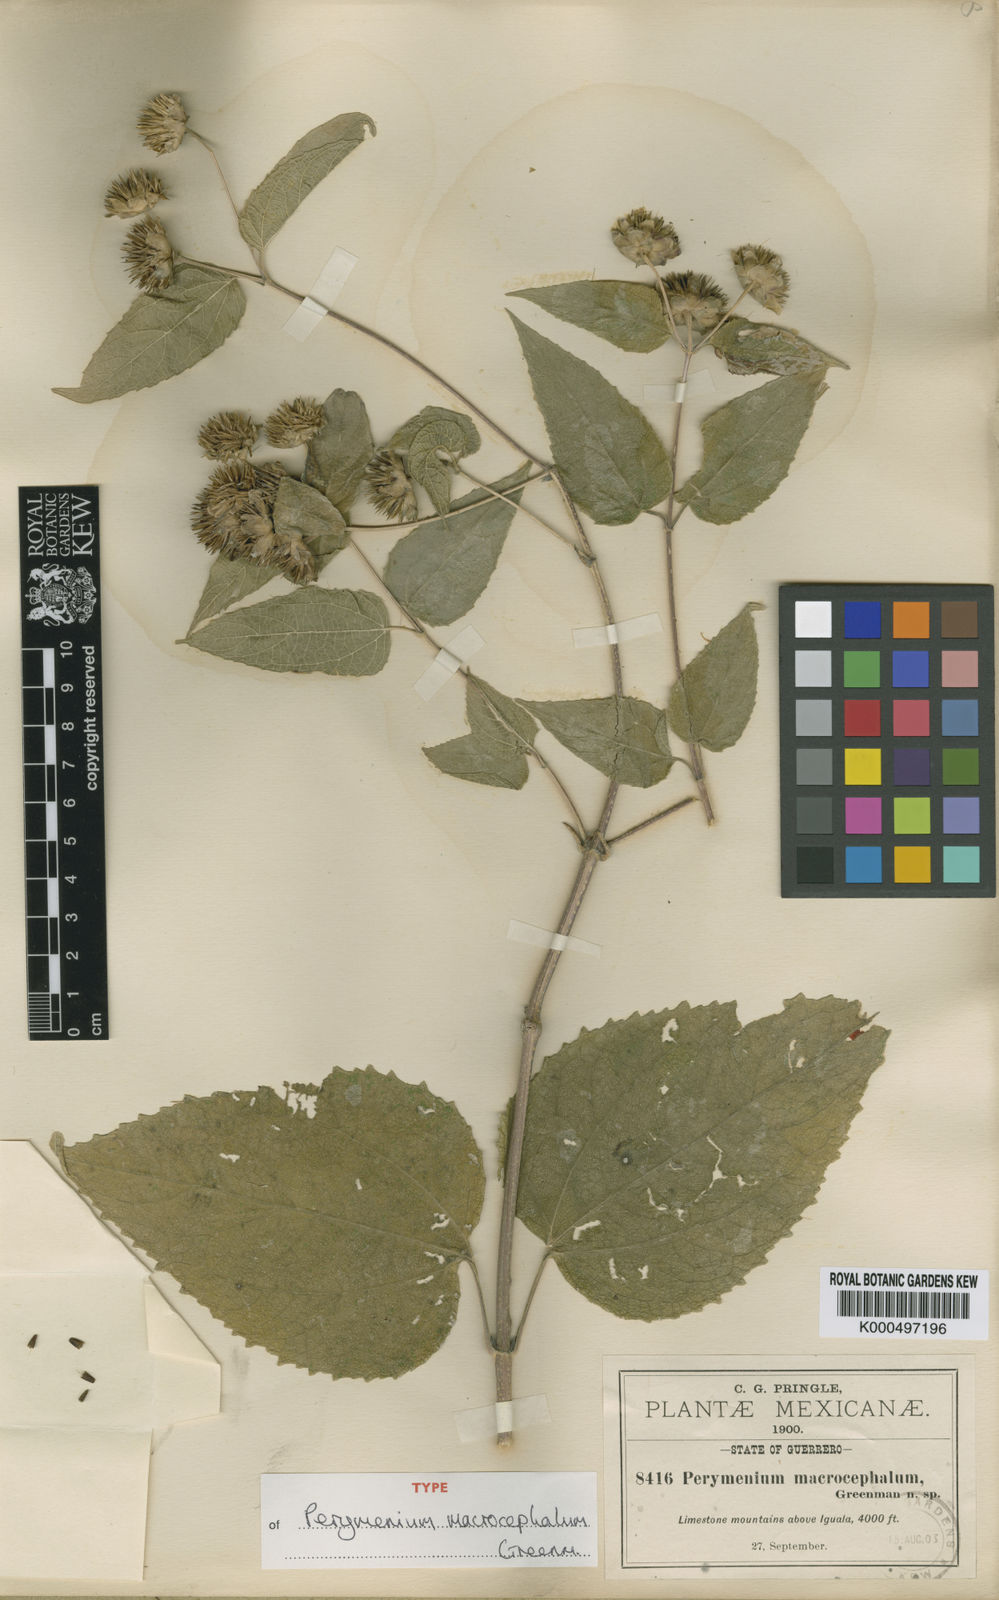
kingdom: Plantae
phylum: Tracheophyta
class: Magnoliopsida
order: Asterales
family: Asteraceae
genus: Perymenium
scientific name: Perymenium macrocephalum
